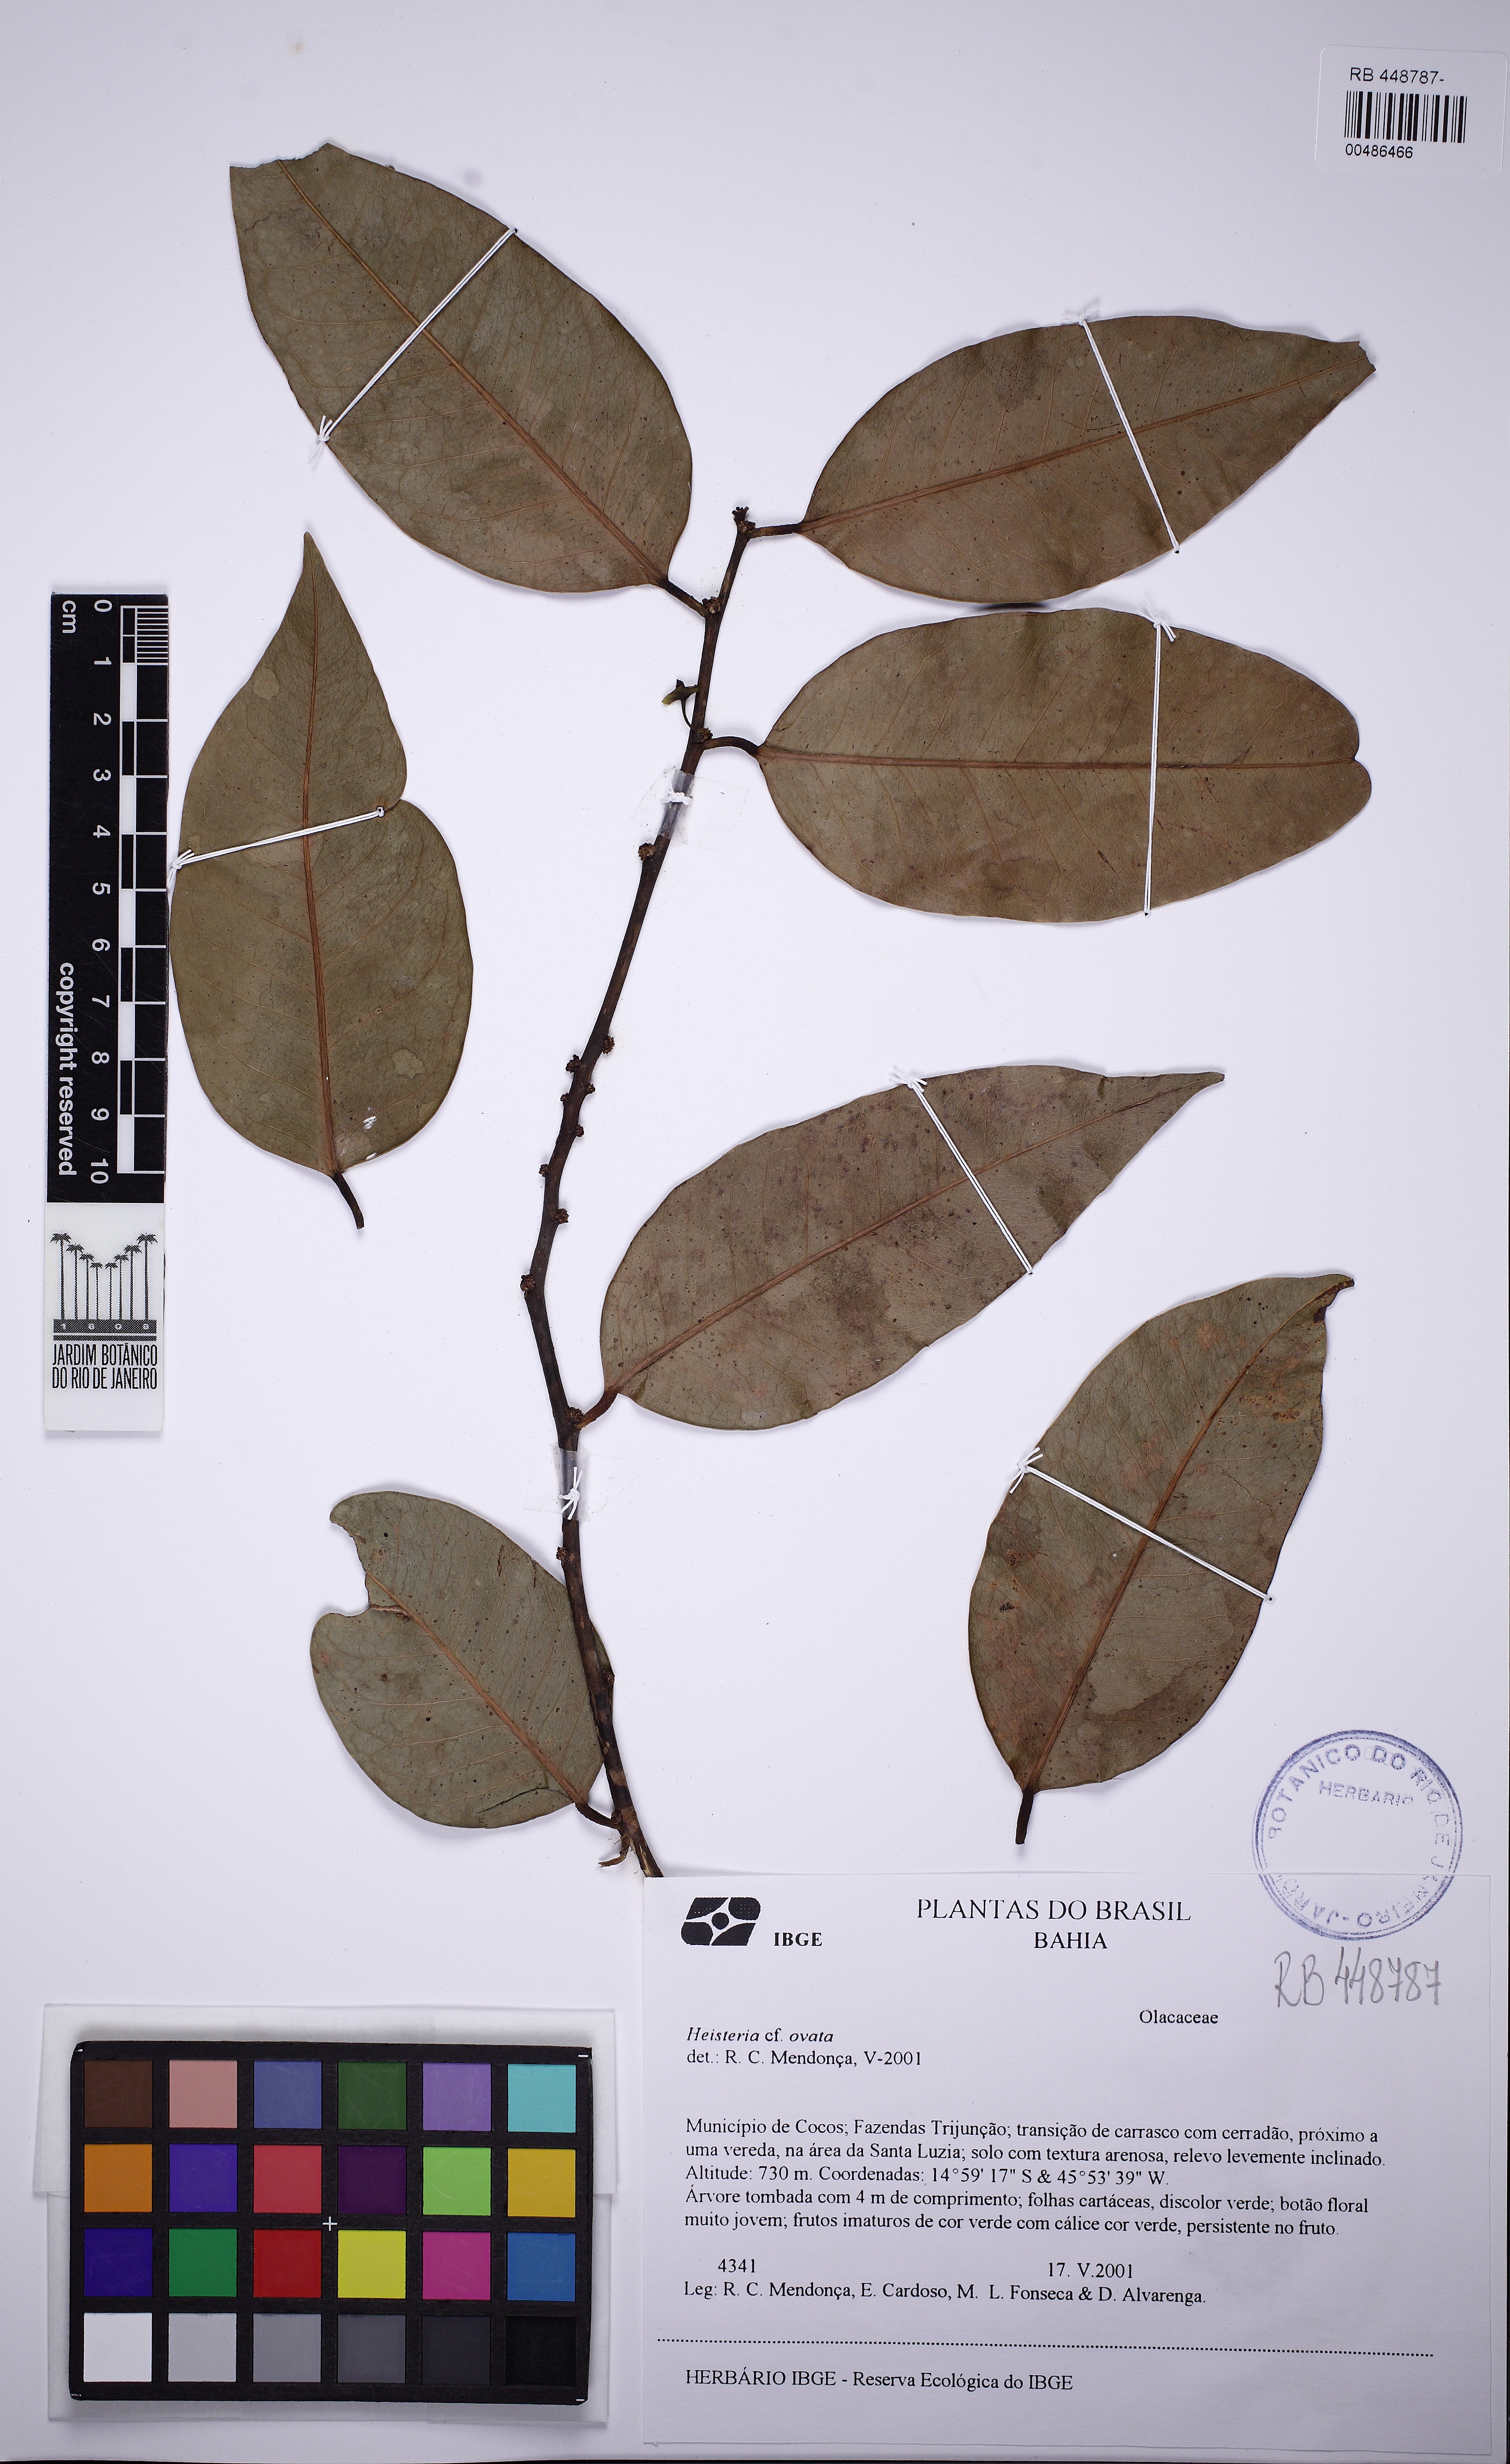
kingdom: Plantae
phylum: Tracheophyta
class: Magnoliopsida
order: Santalales
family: Erythropalaceae
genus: Heisteria
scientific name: Heisteria ovata
